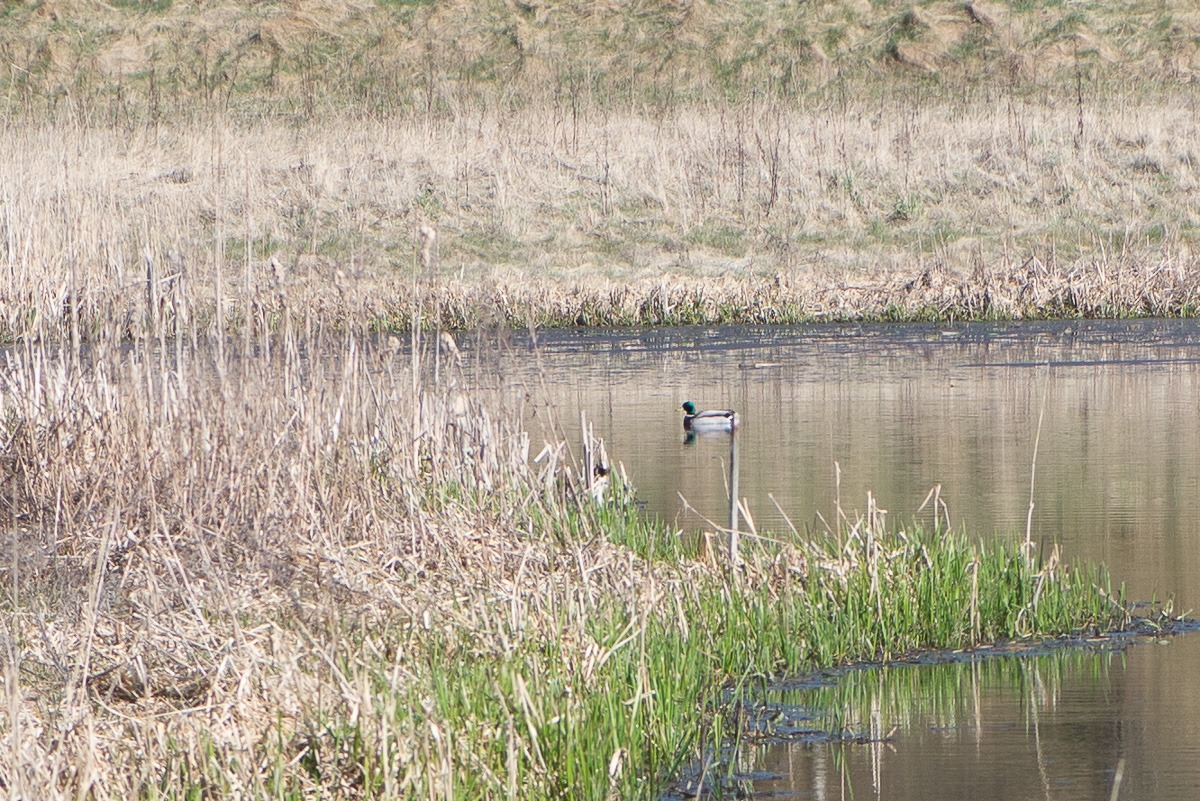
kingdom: Animalia
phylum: Chordata
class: Aves
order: Anseriformes
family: Anatidae
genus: Anas
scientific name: Anas platyrhynchos
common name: Gråand
